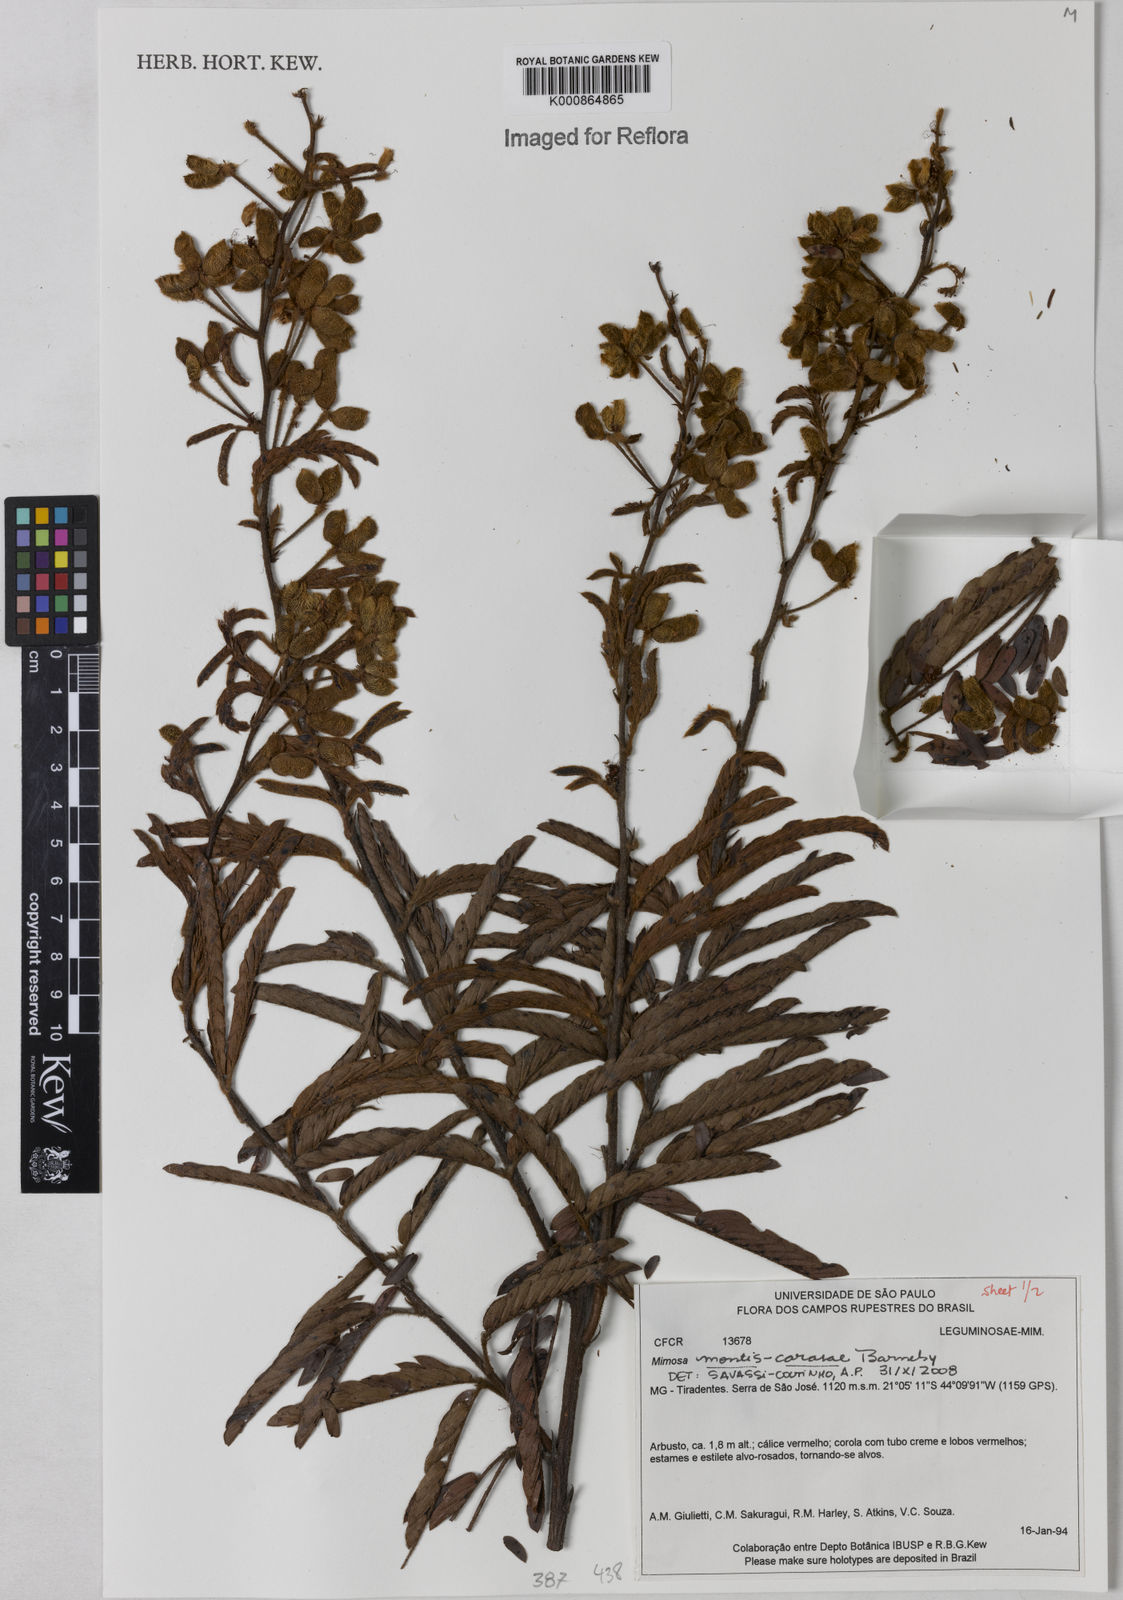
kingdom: Plantae
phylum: Tracheophyta
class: Magnoliopsida
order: Fabales
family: Fabaceae
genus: Mimosa
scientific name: Mimosa montis-carasae
